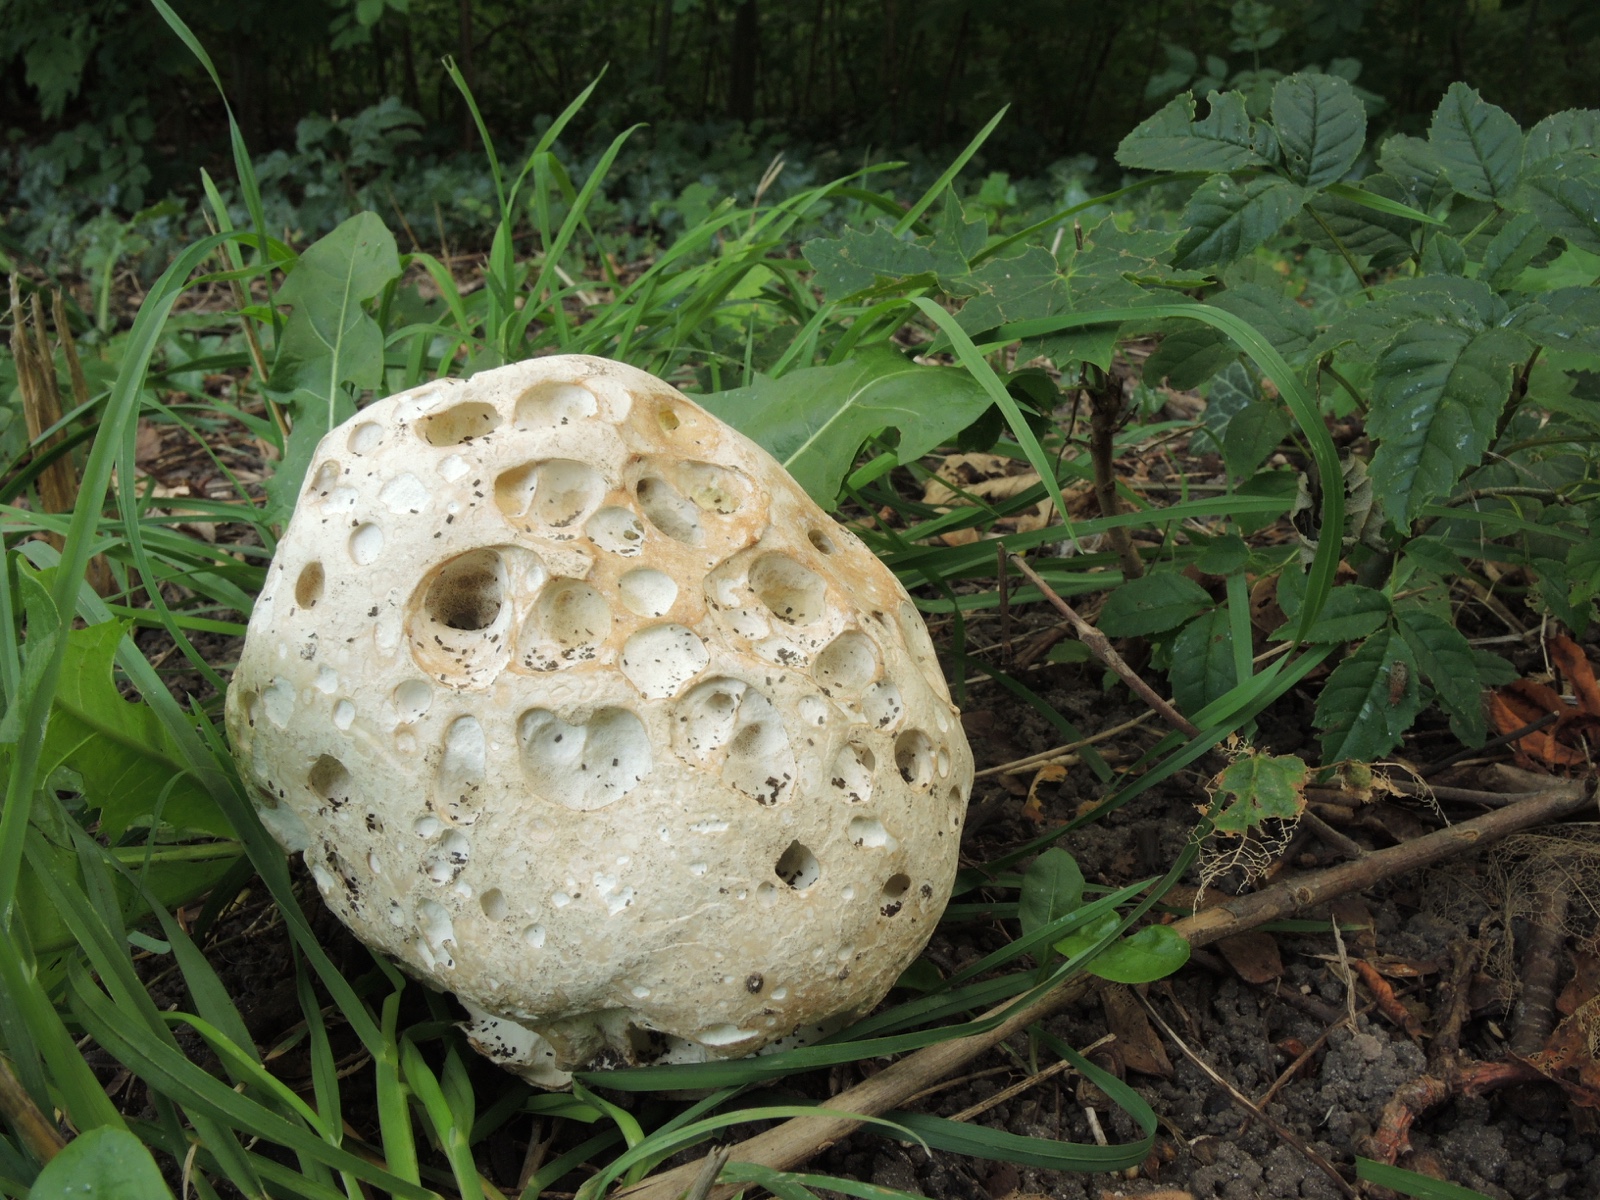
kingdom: Fungi
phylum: Basidiomycota
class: Agaricomycetes
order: Agaricales
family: Lycoperdaceae
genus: Calvatia
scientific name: Calvatia gigantea
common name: kæmpestøvbold
